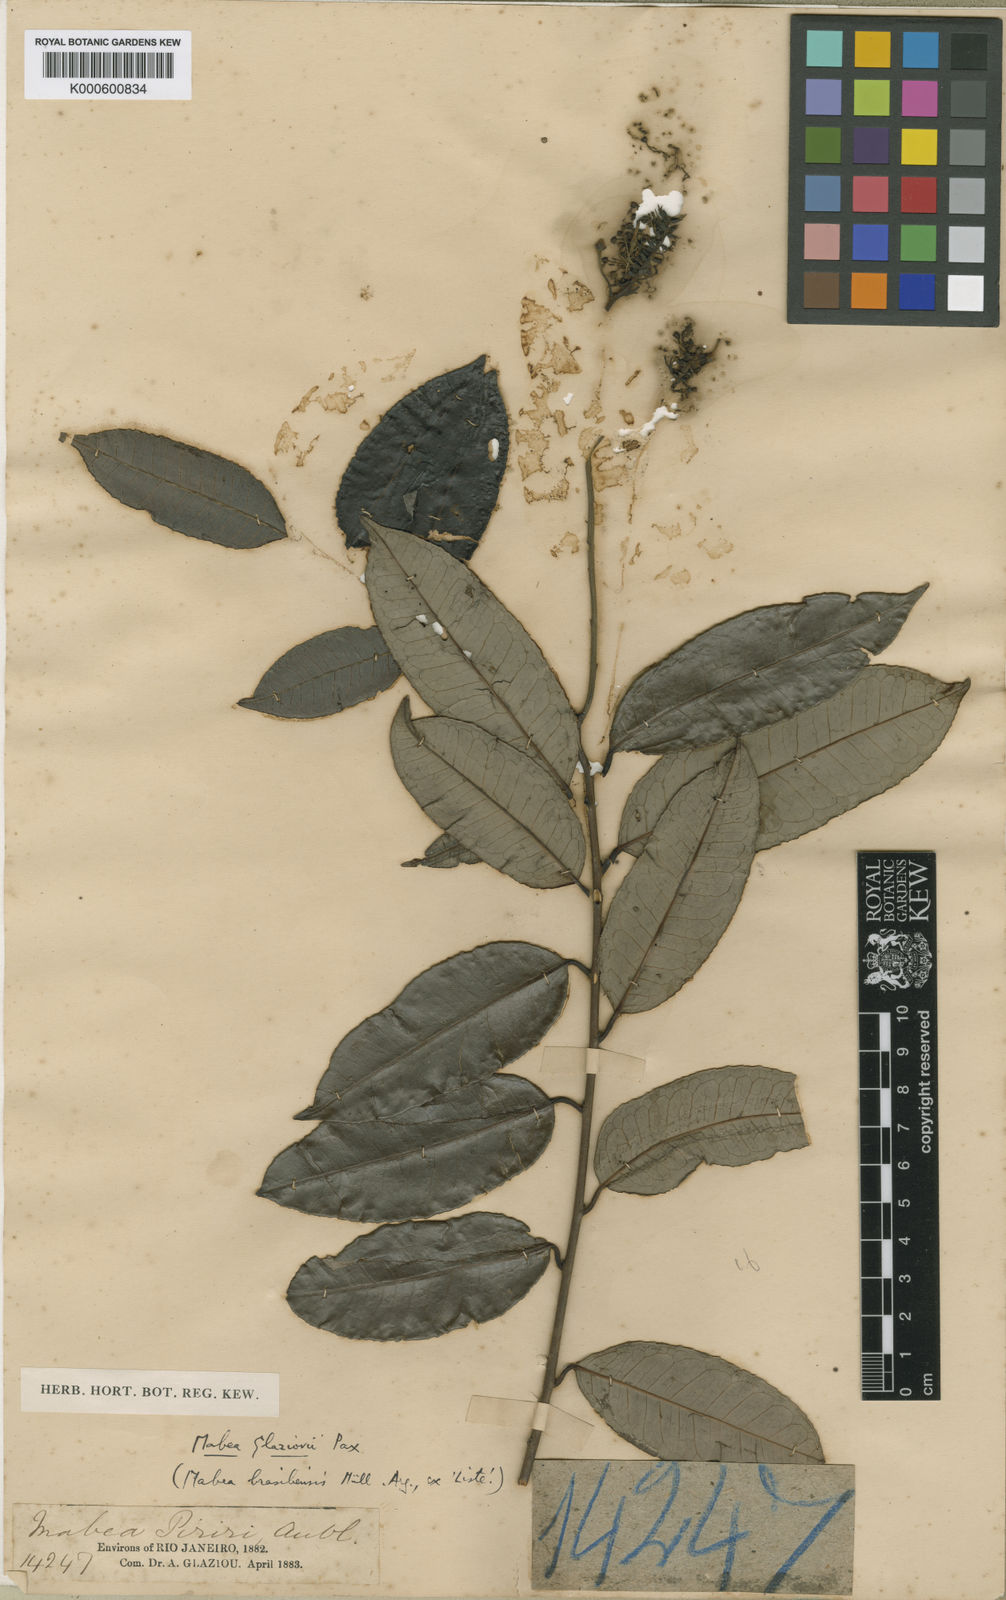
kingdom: Plantae
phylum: Tracheophyta
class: Magnoliopsida
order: Malpighiales
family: Euphorbiaceae
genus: Mabea
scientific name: Mabea glaziovii
